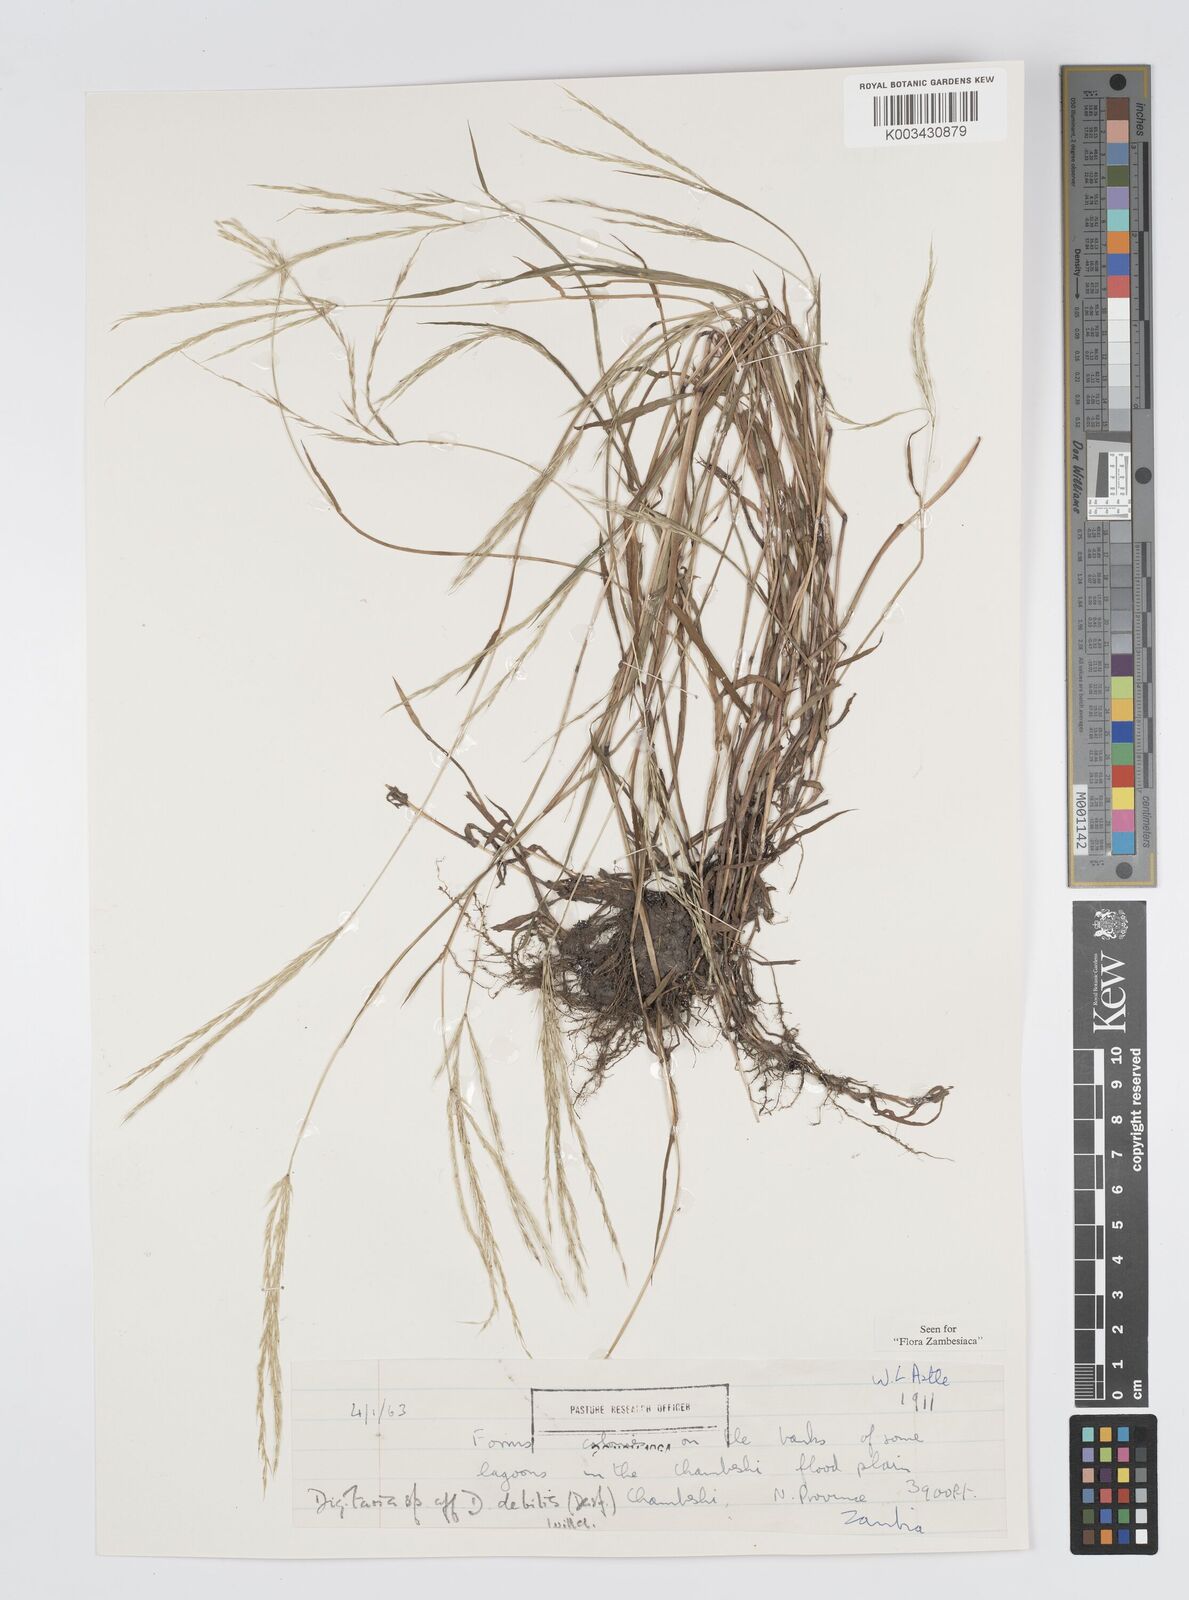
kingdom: Plantae
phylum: Tracheophyta
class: Liliopsida
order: Poales
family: Poaceae
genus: Digitaria
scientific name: Digitaria remotigluma
